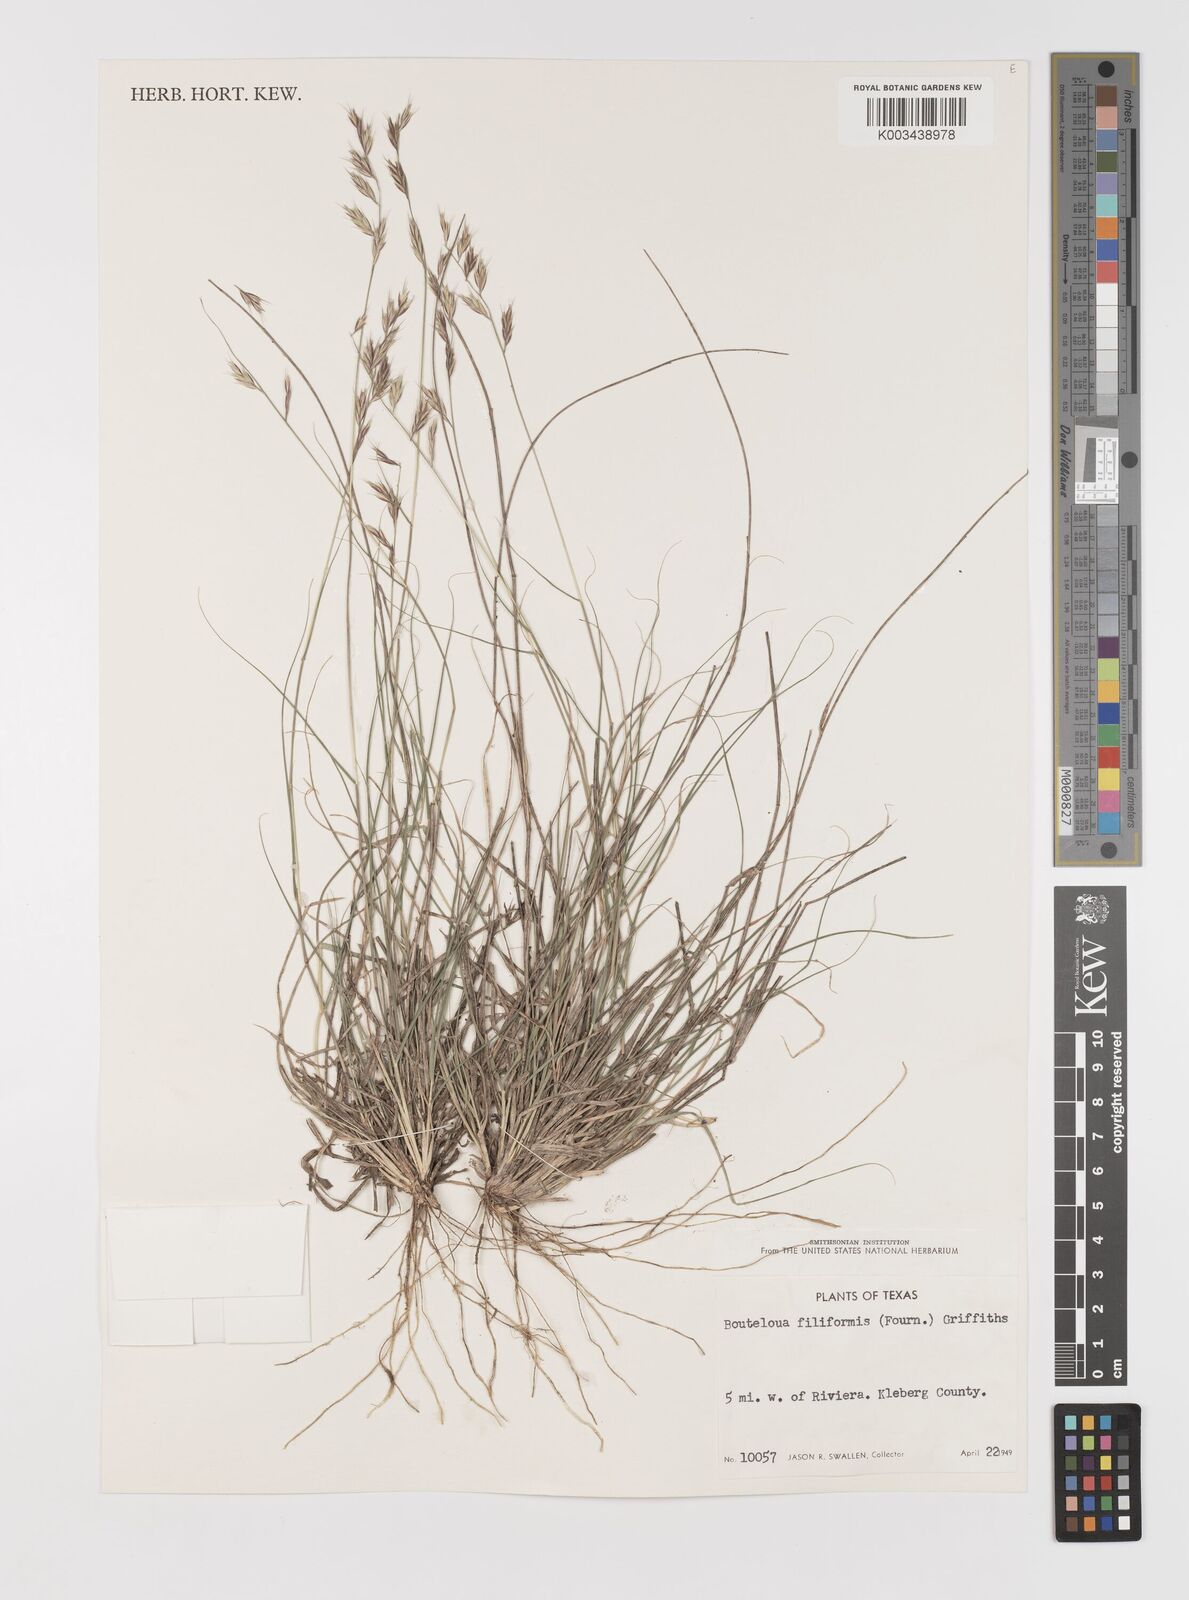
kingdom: Plantae
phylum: Tracheophyta
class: Liliopsida
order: Poales
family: Poaceae
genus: Bouteloua
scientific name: Bouteloua repens
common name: Slender grama
